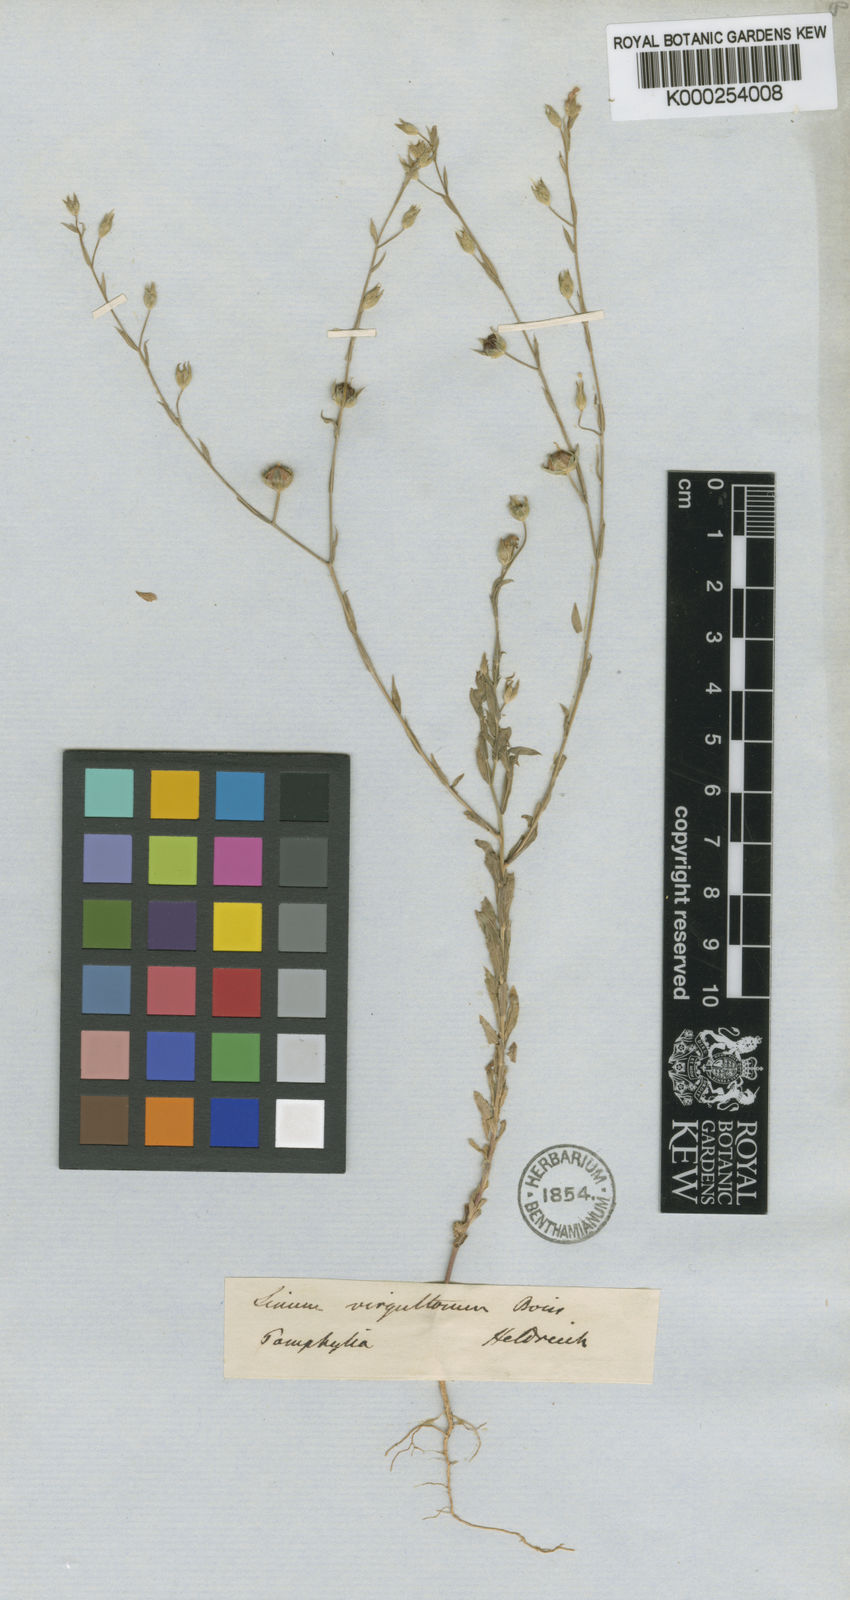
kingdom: Plantae
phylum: Tracheophyta
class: Magnoliopsida
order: Malpighiales
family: Linaceae
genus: Linum
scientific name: Linum virgultorum
